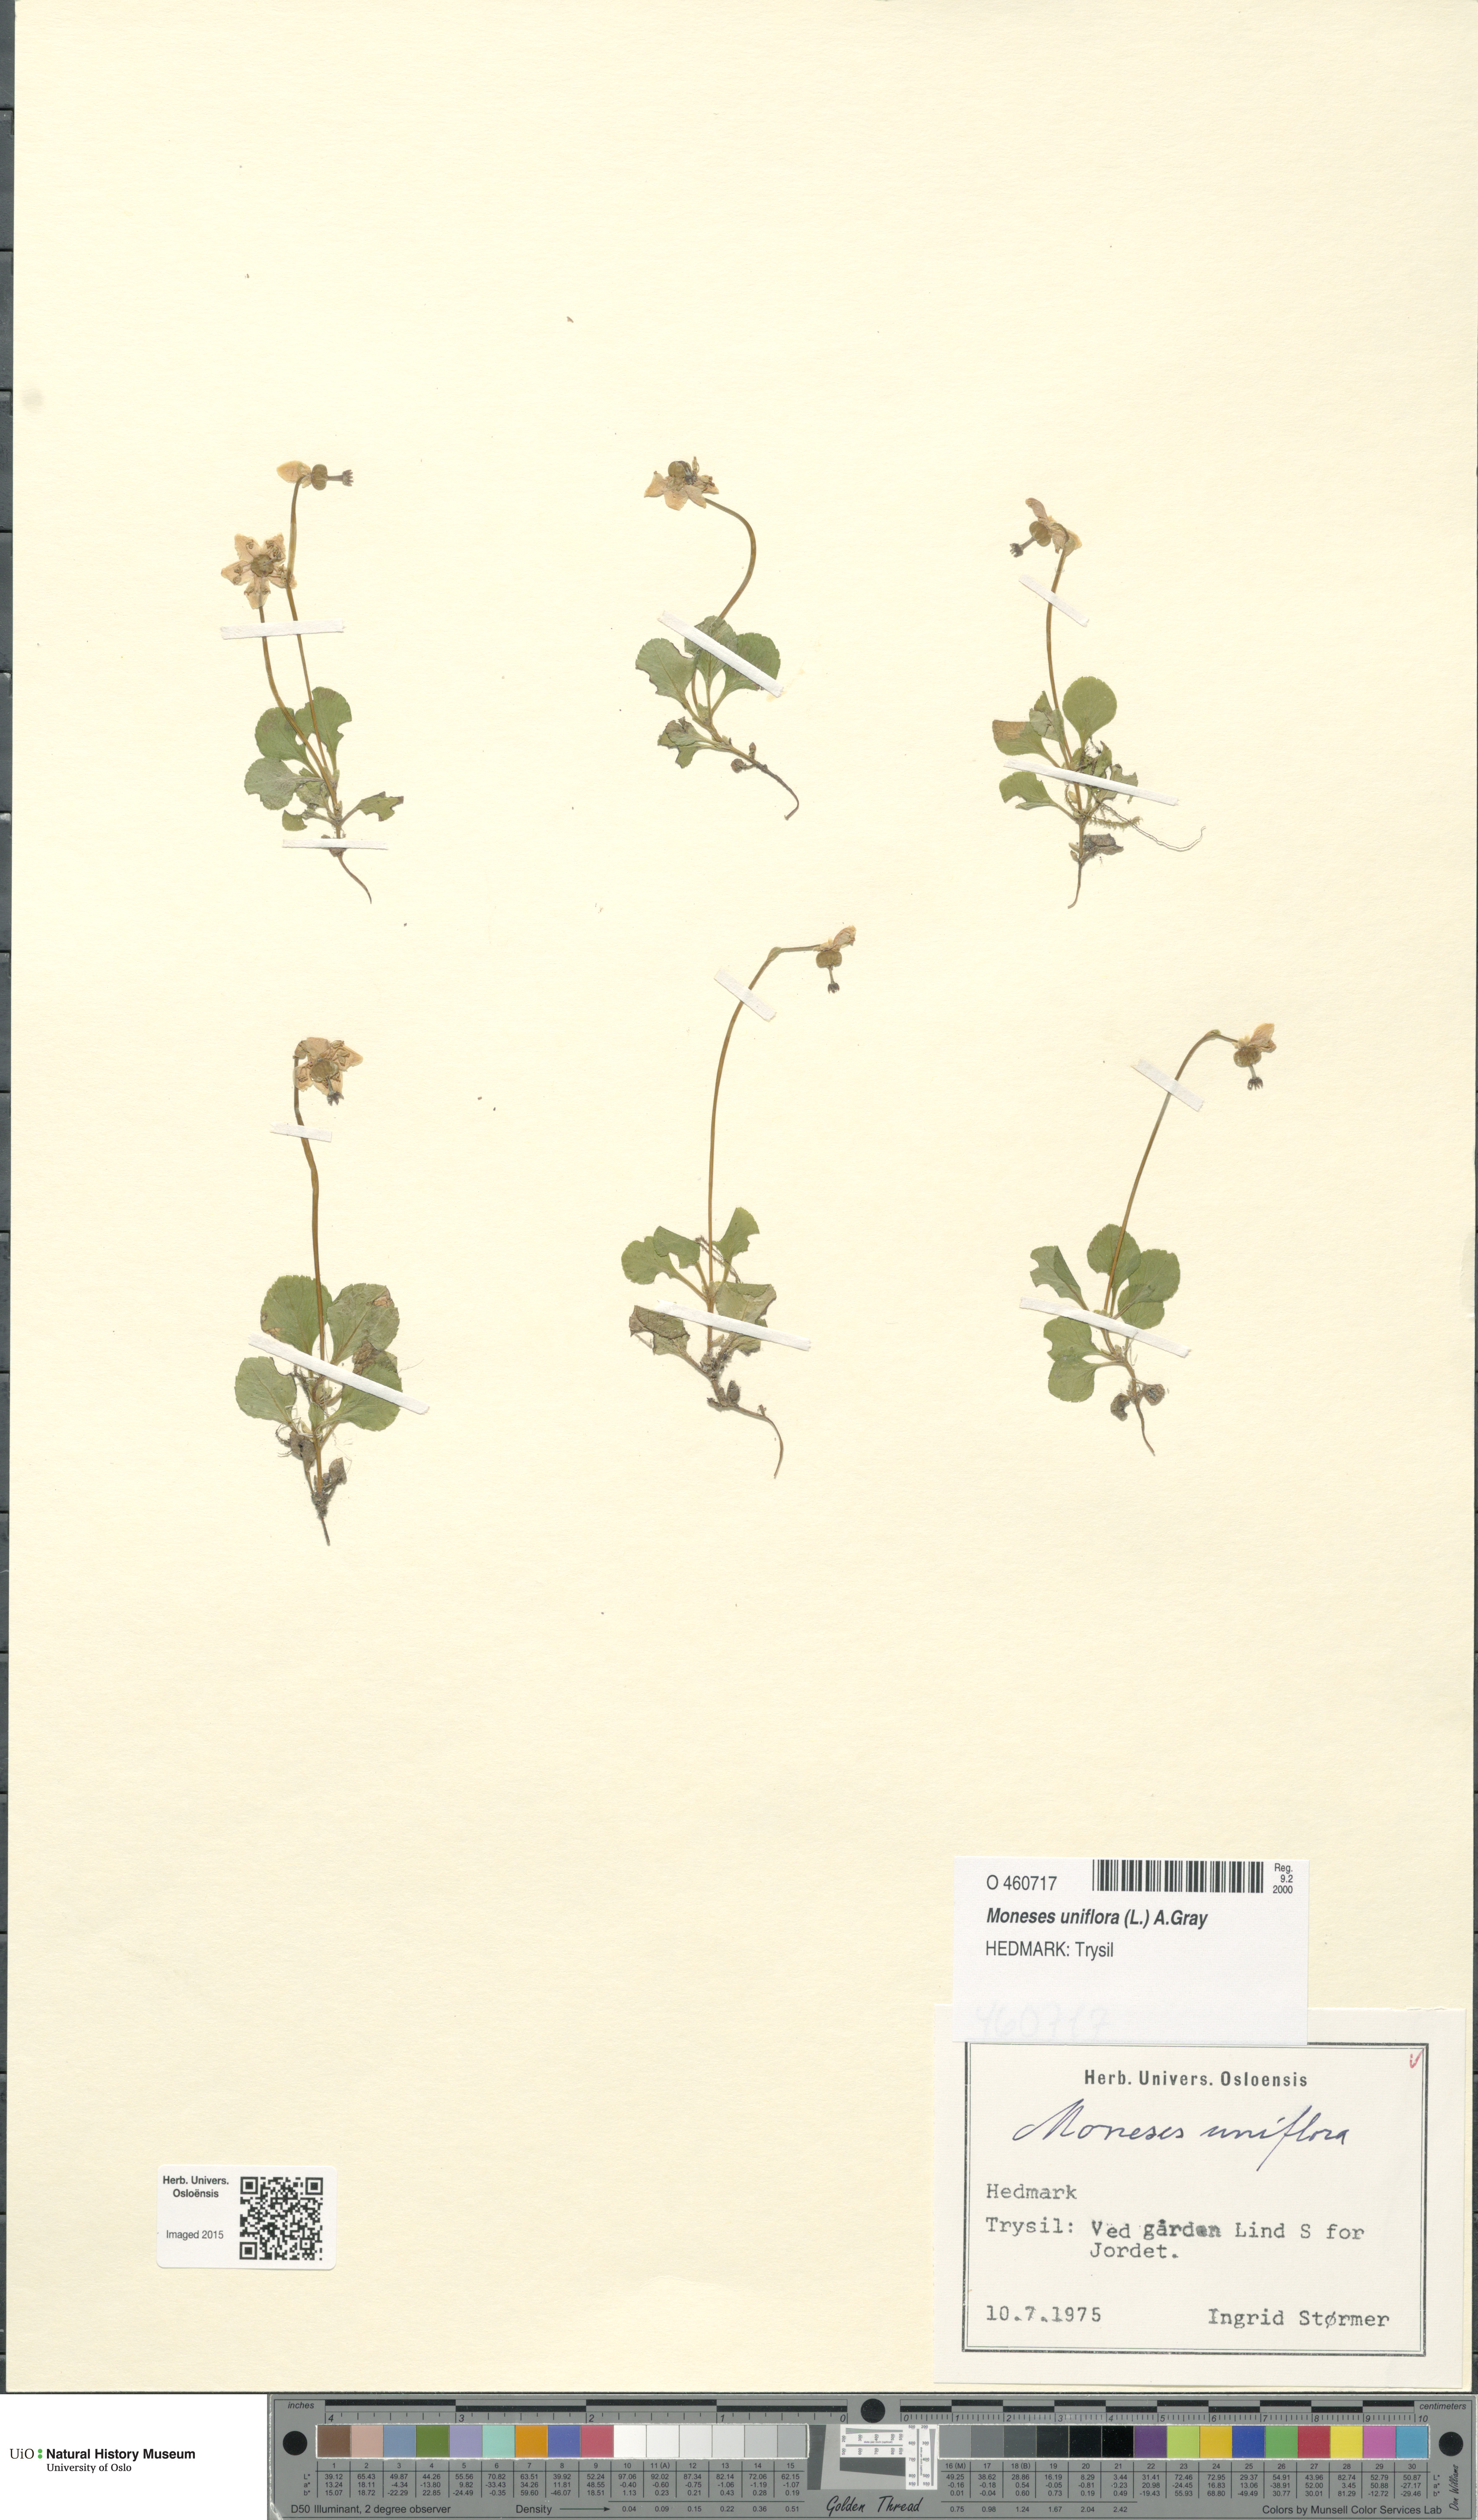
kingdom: Plantae
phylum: Tracheophyta
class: Magnoliopsida
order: Ericales
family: Ericaceae
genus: Moneses
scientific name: Moneses uniflora
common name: One-flowered wintergreen
